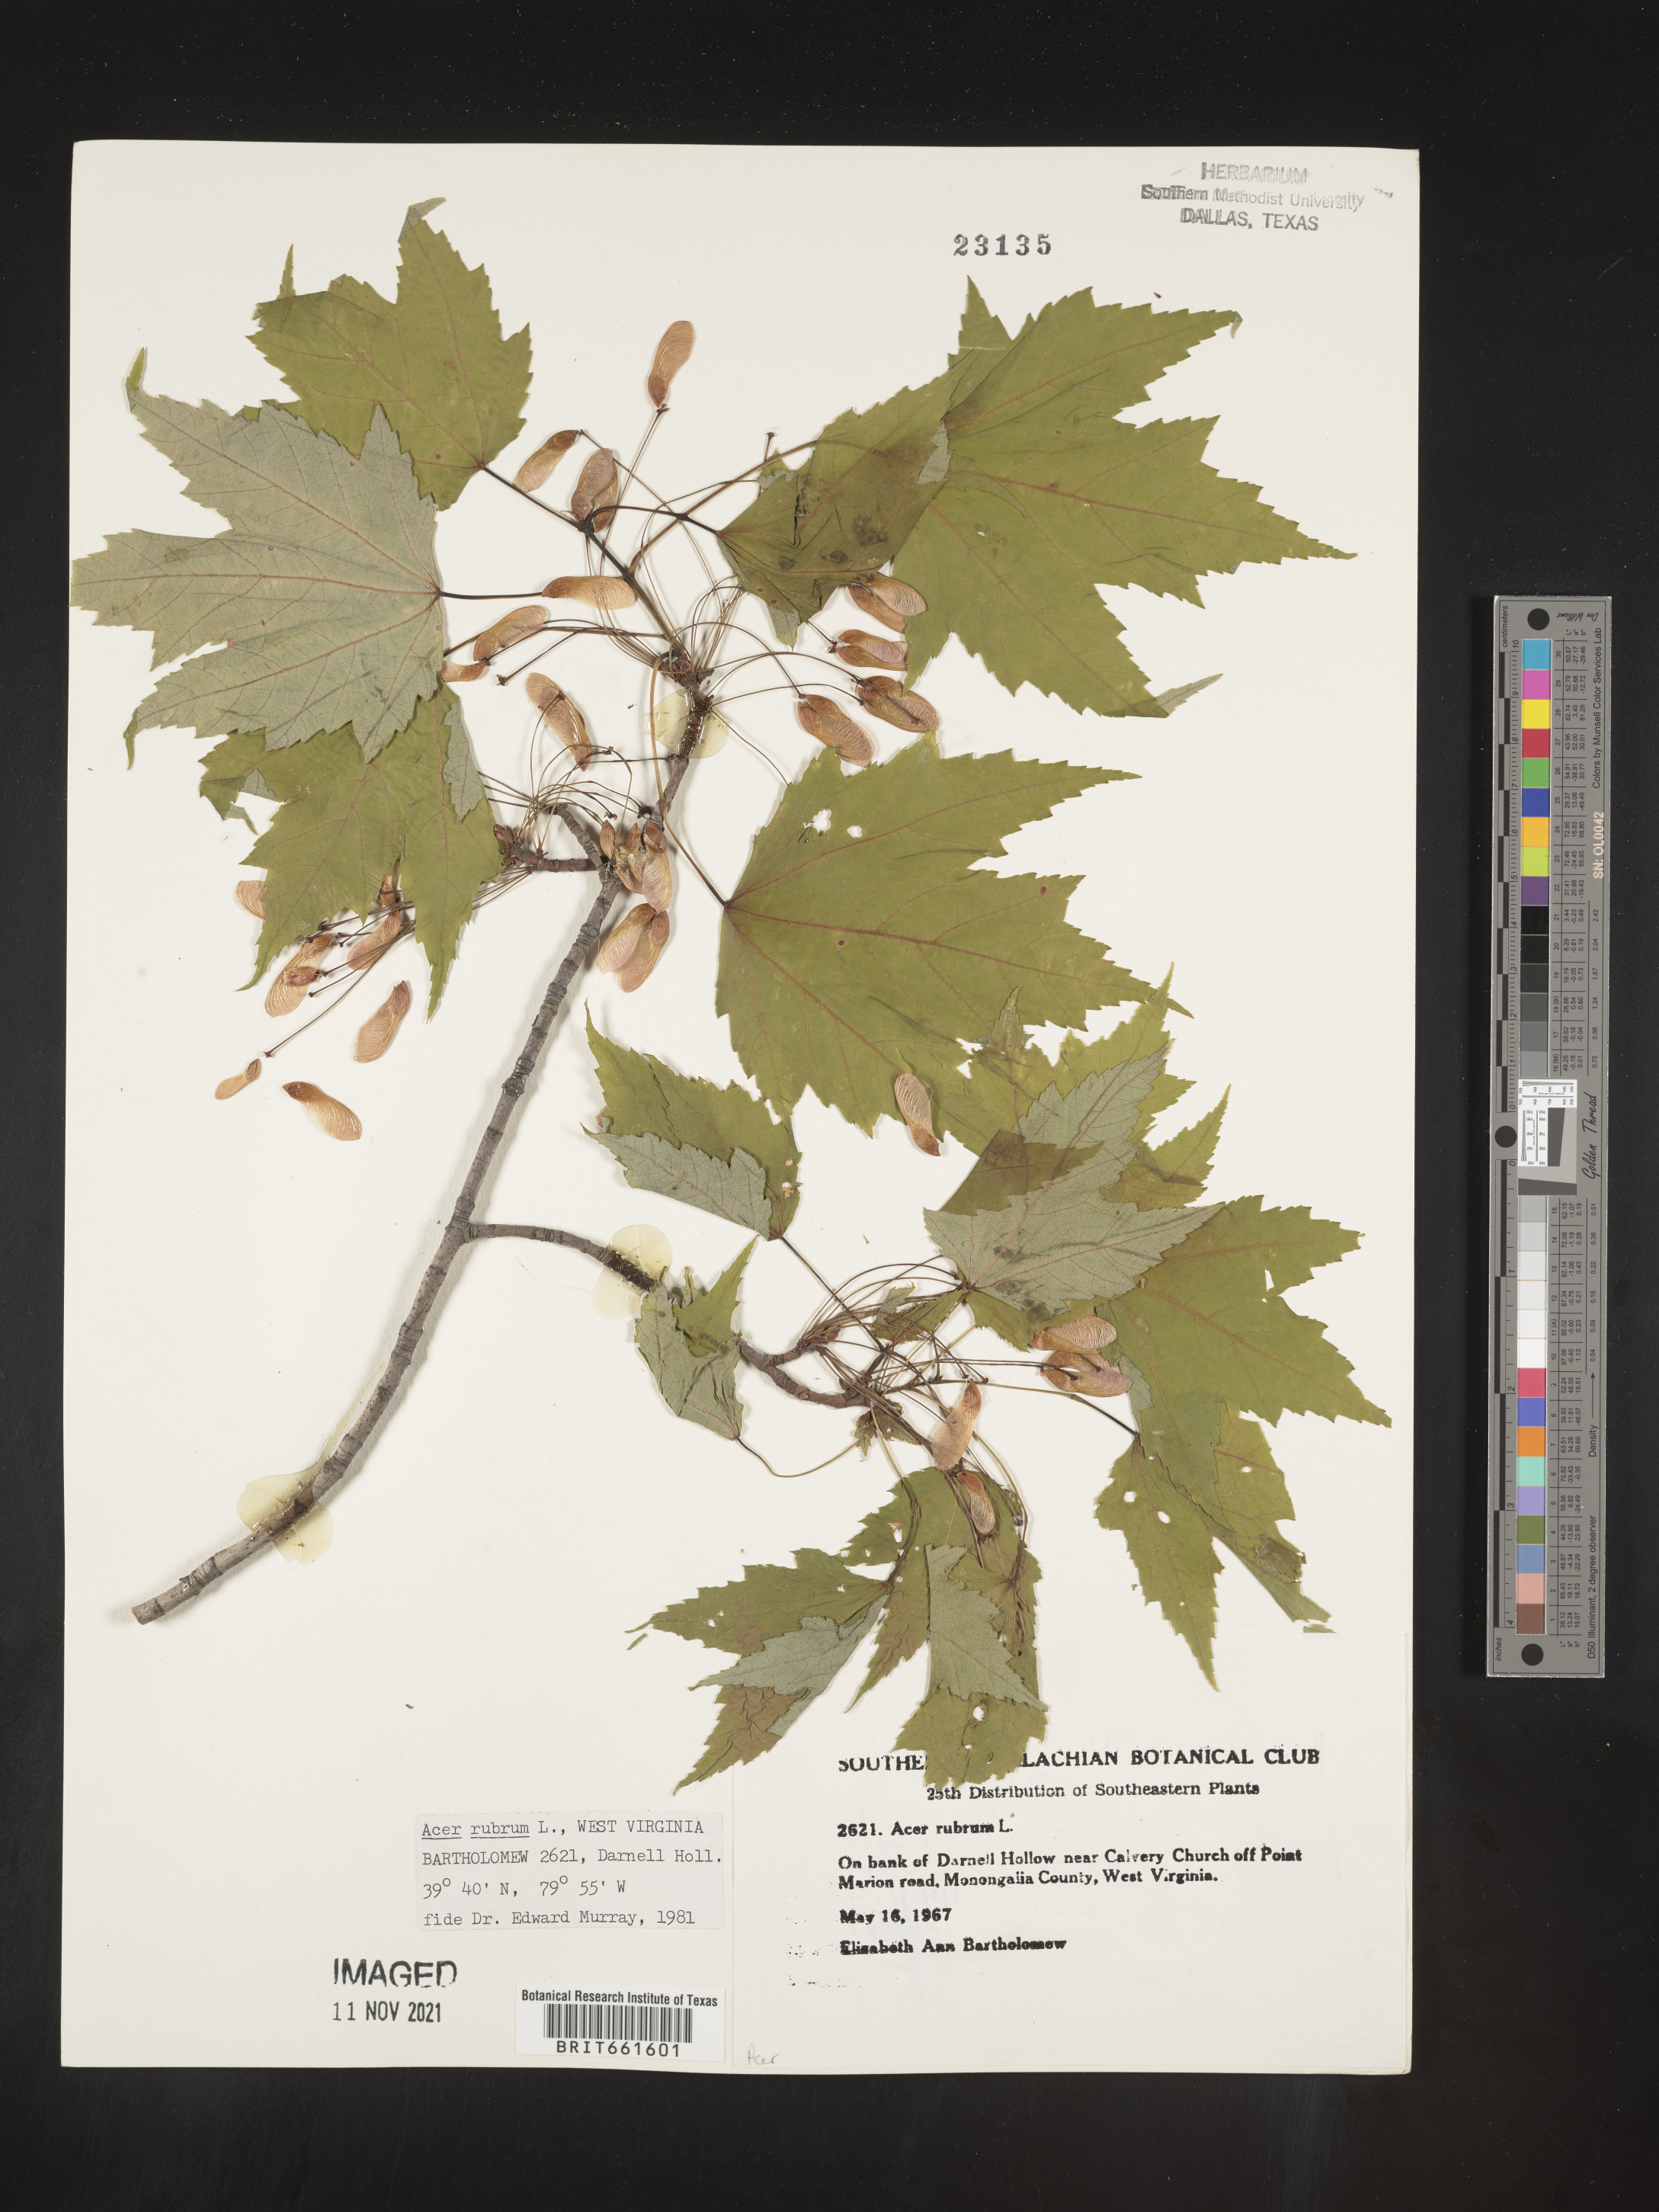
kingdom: Plantae
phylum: Tracheophyta
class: Magnoliopsida
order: Sapindales
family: Sapindaceae
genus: Acer
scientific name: Acer rubrum
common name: Red maple
